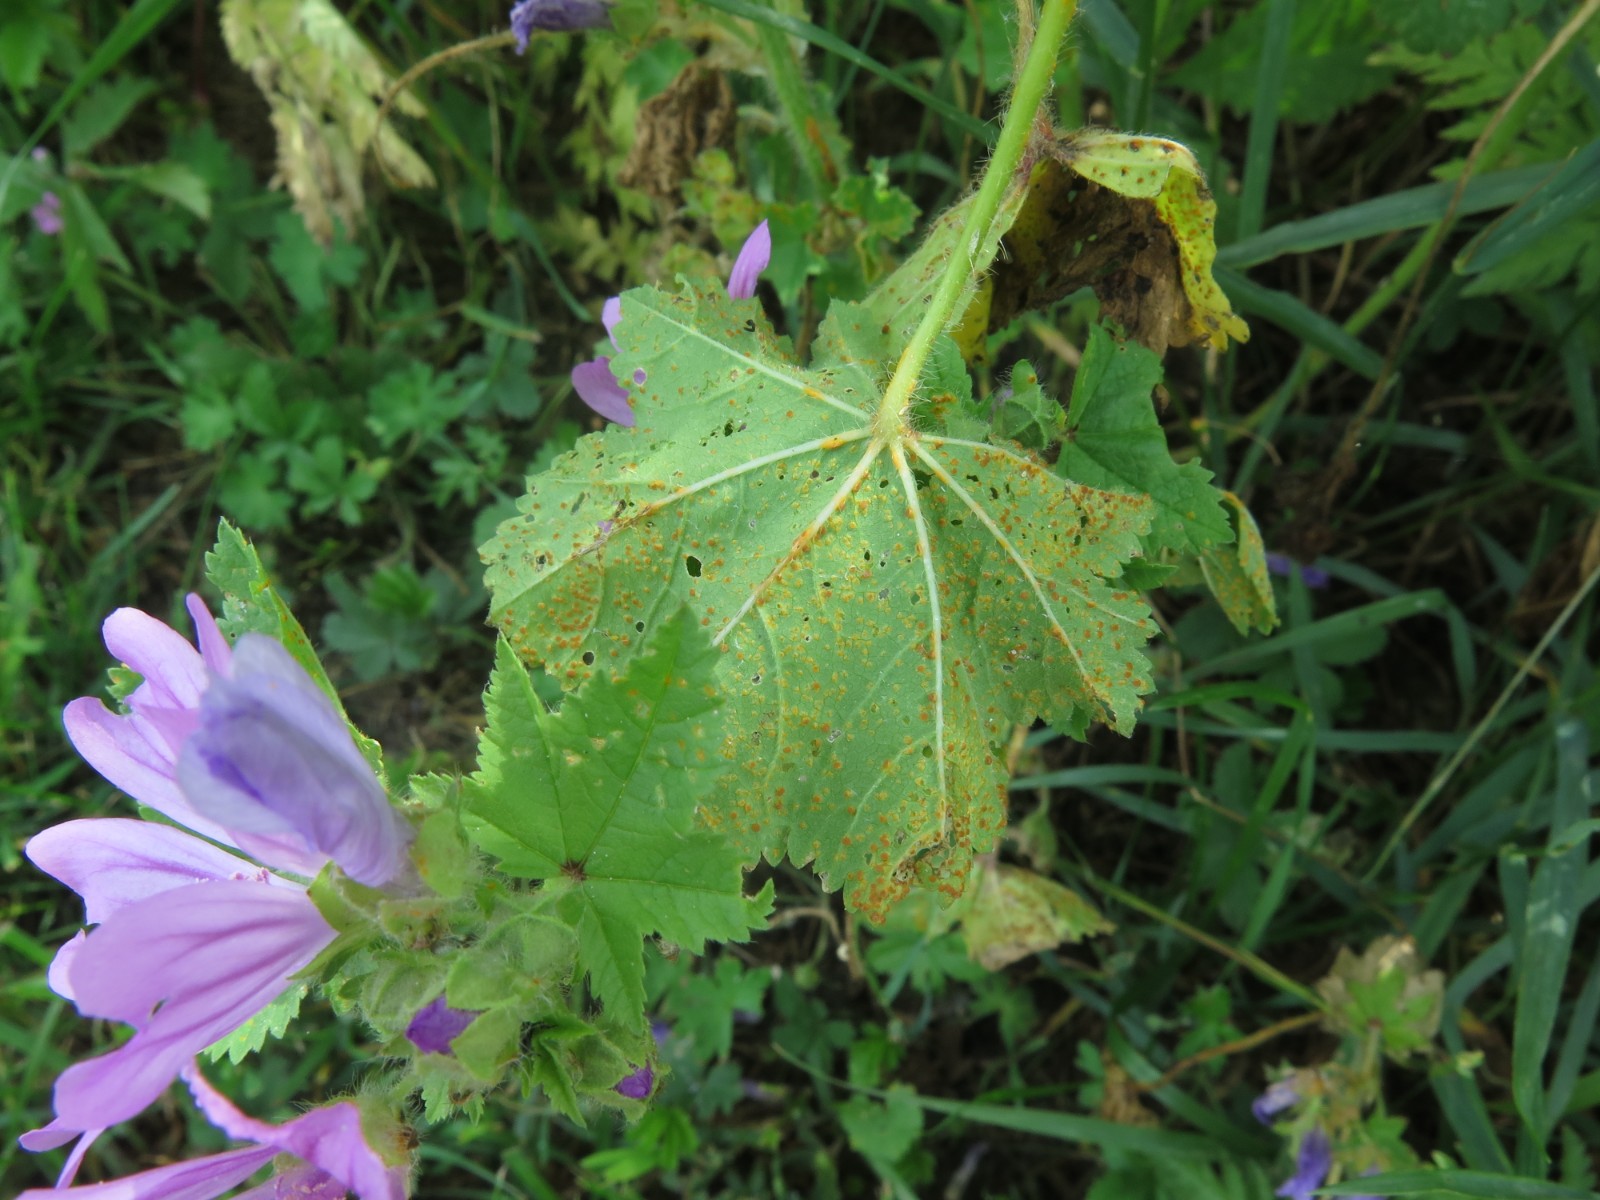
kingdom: Fungi
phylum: Basidiomycota
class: Pucciniomycetes
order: Pucciniales
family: Pucciniaceae
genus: Puccinia
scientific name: Puccinia malvacearum
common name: stokrose-tvecellerust
